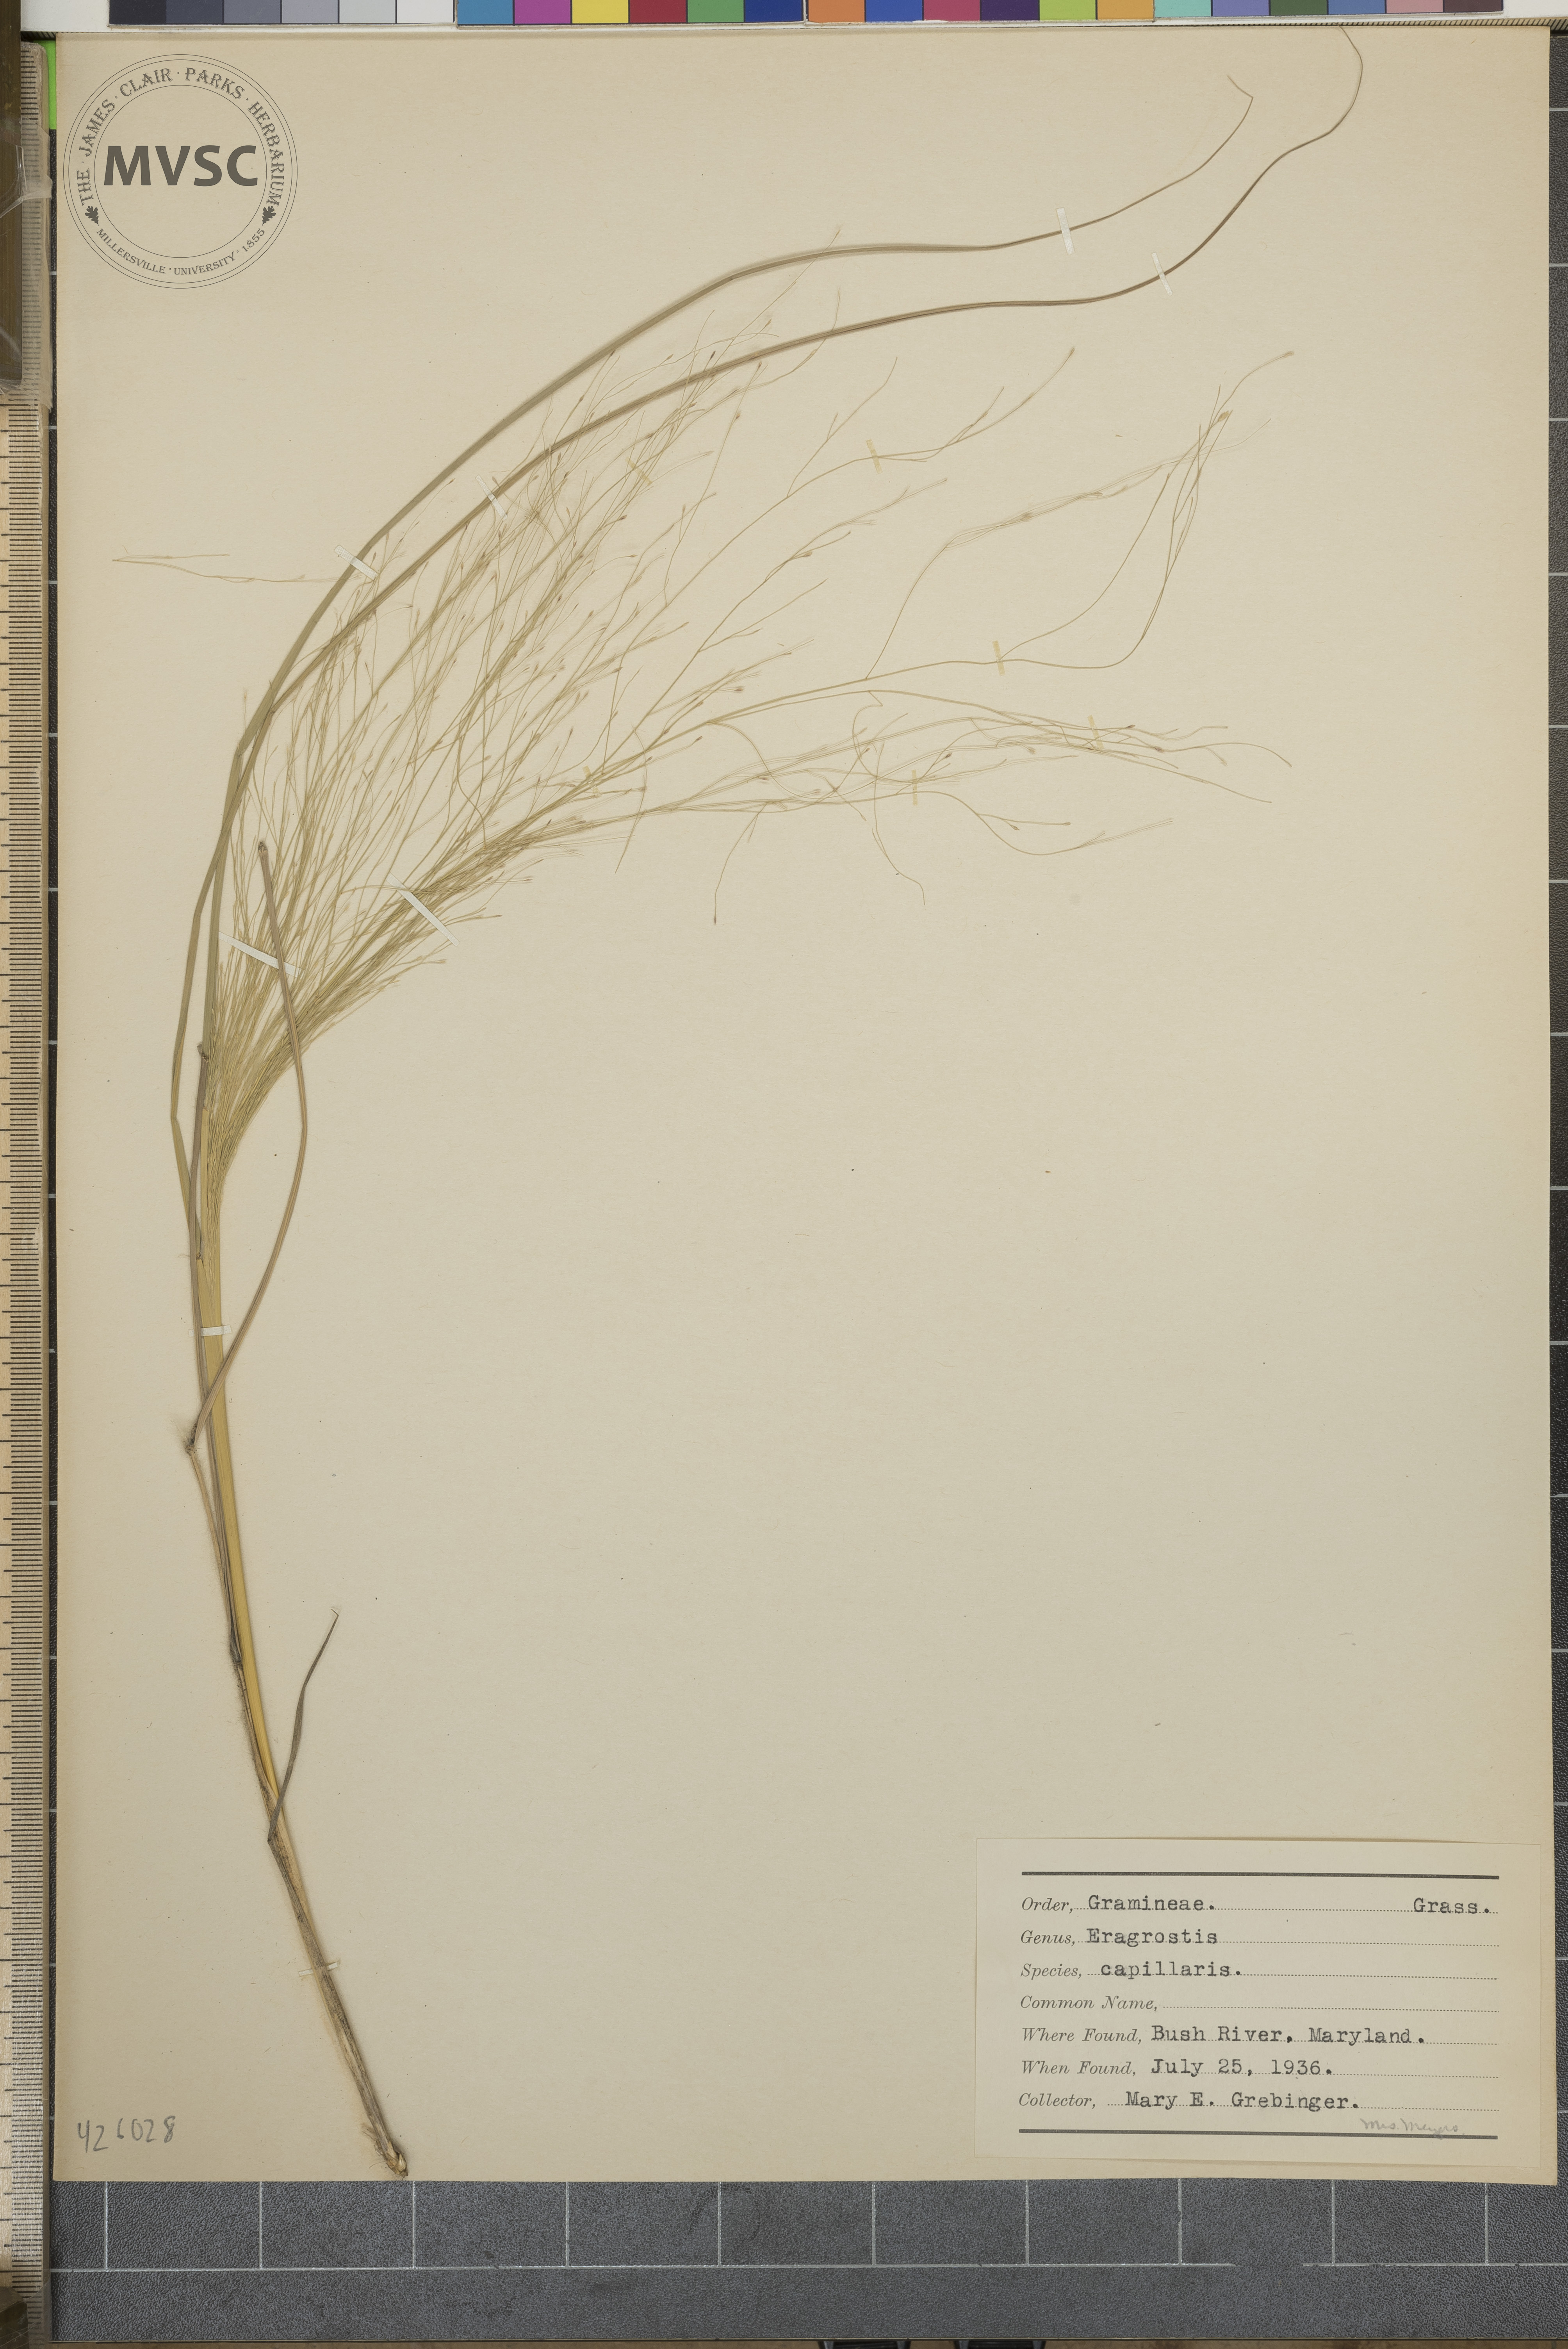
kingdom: Plantae
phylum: Tracheophyta
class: Liliopsida
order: Poales
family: Poaceae
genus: Eragrostis
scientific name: Eragrostis capillaris
